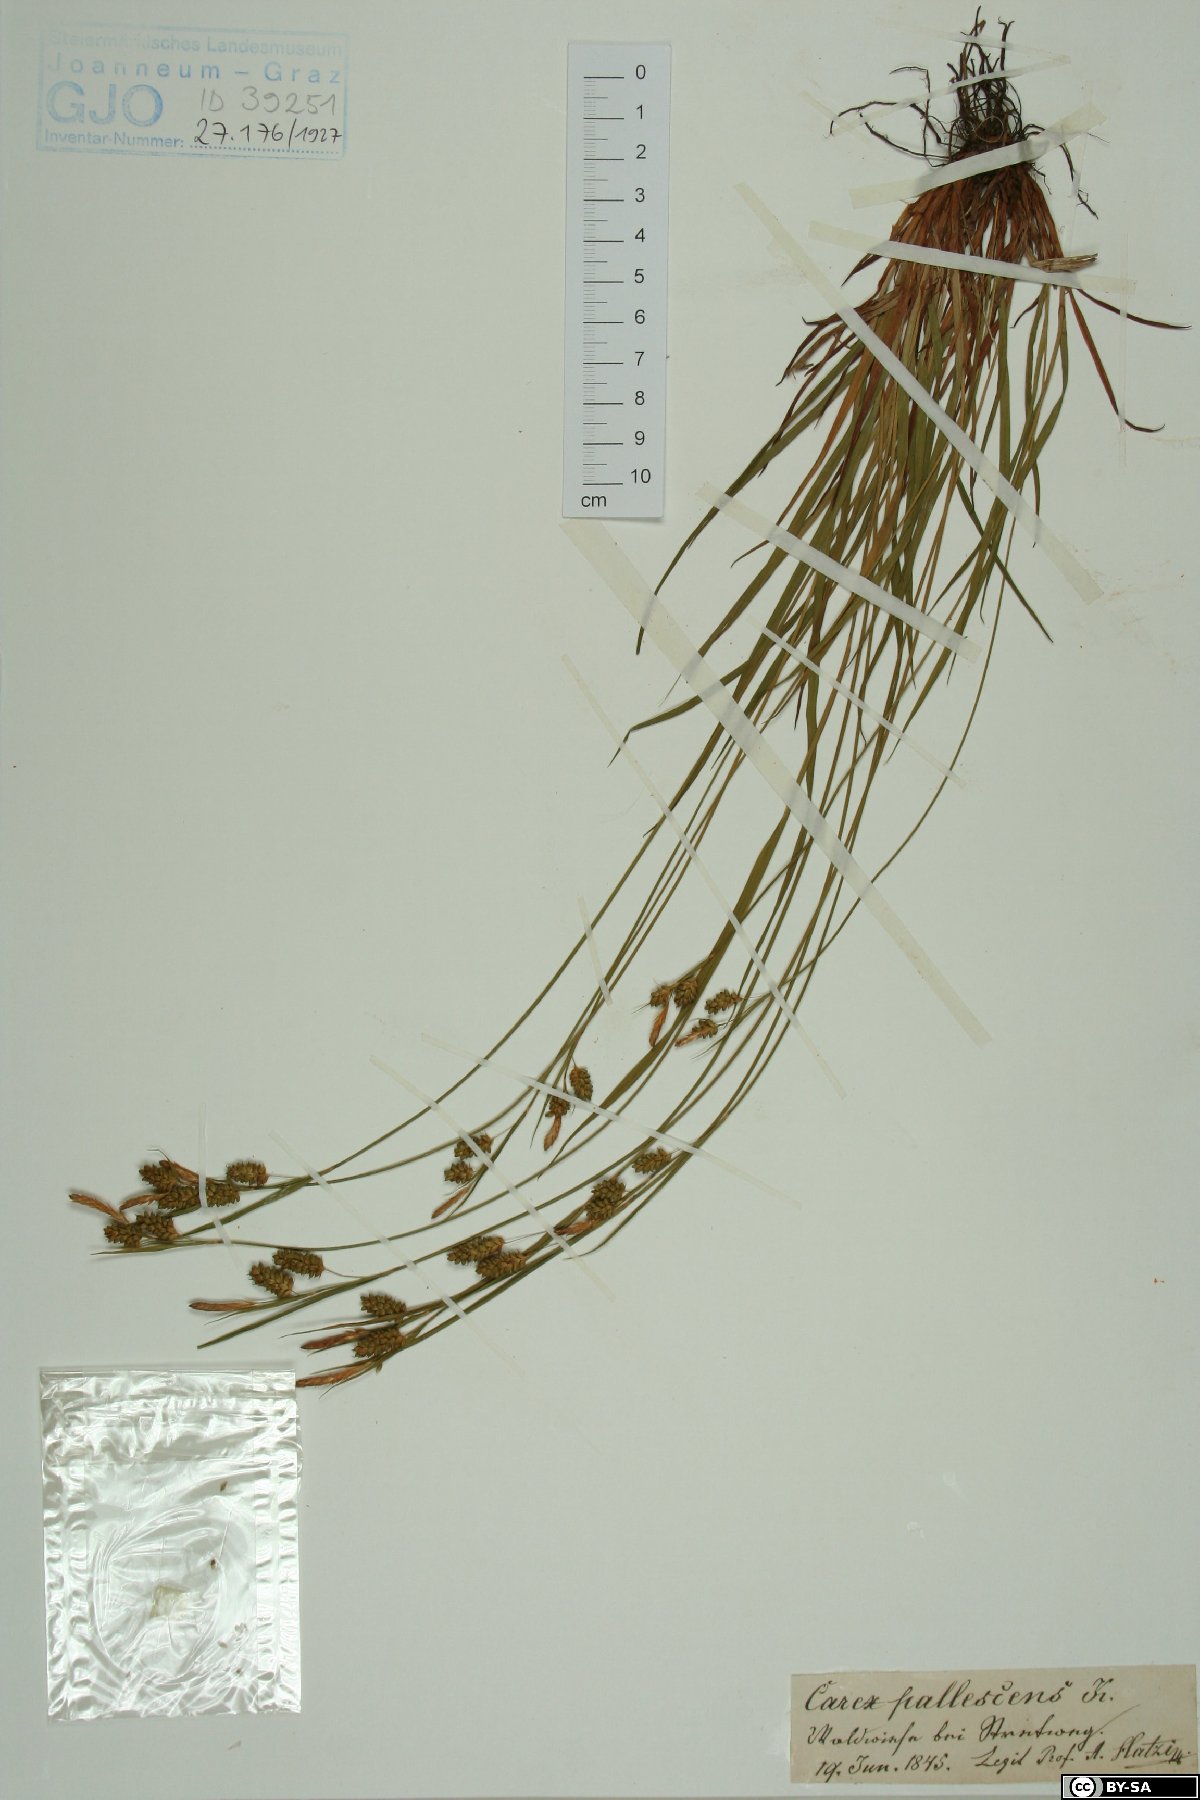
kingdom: Plantae
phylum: Tracheophyta
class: Liliopsida
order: Poales
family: Cyperaceae
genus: Carex
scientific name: Carex pallescens
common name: Pale sedge
